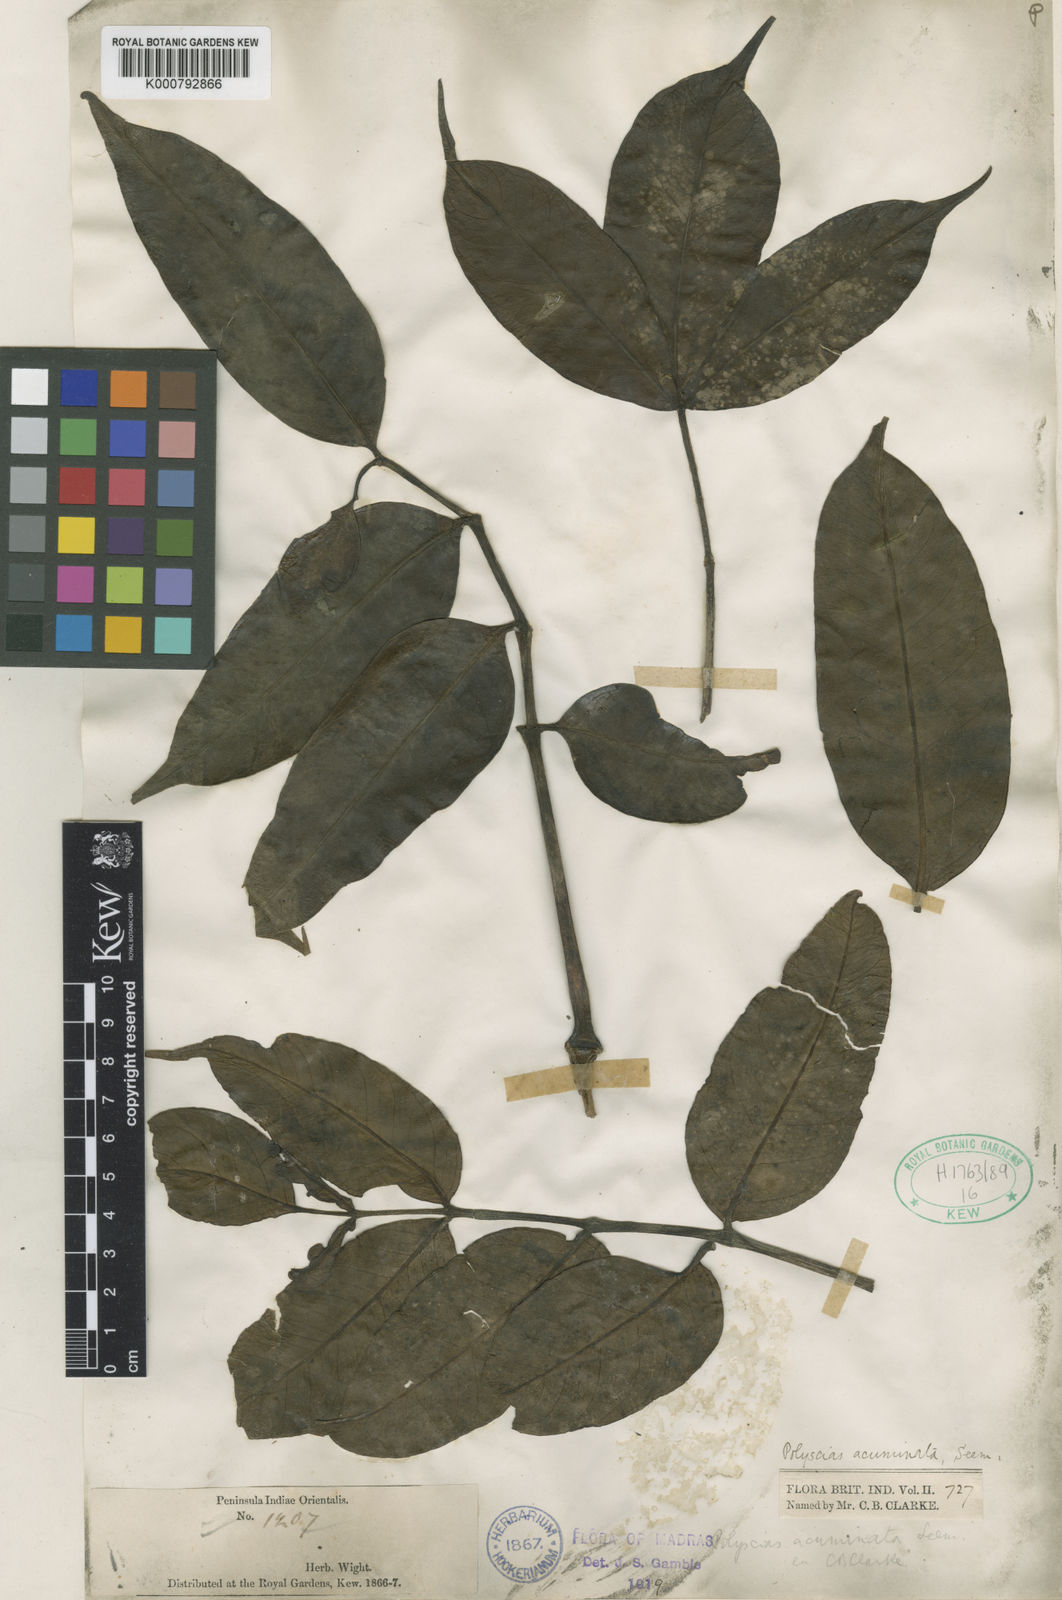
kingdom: Plantae
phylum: Tracheophyta
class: Magnoliopsida
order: Apiales
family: Araliaceae
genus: Polyscias
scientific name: Polyscias acuminata
